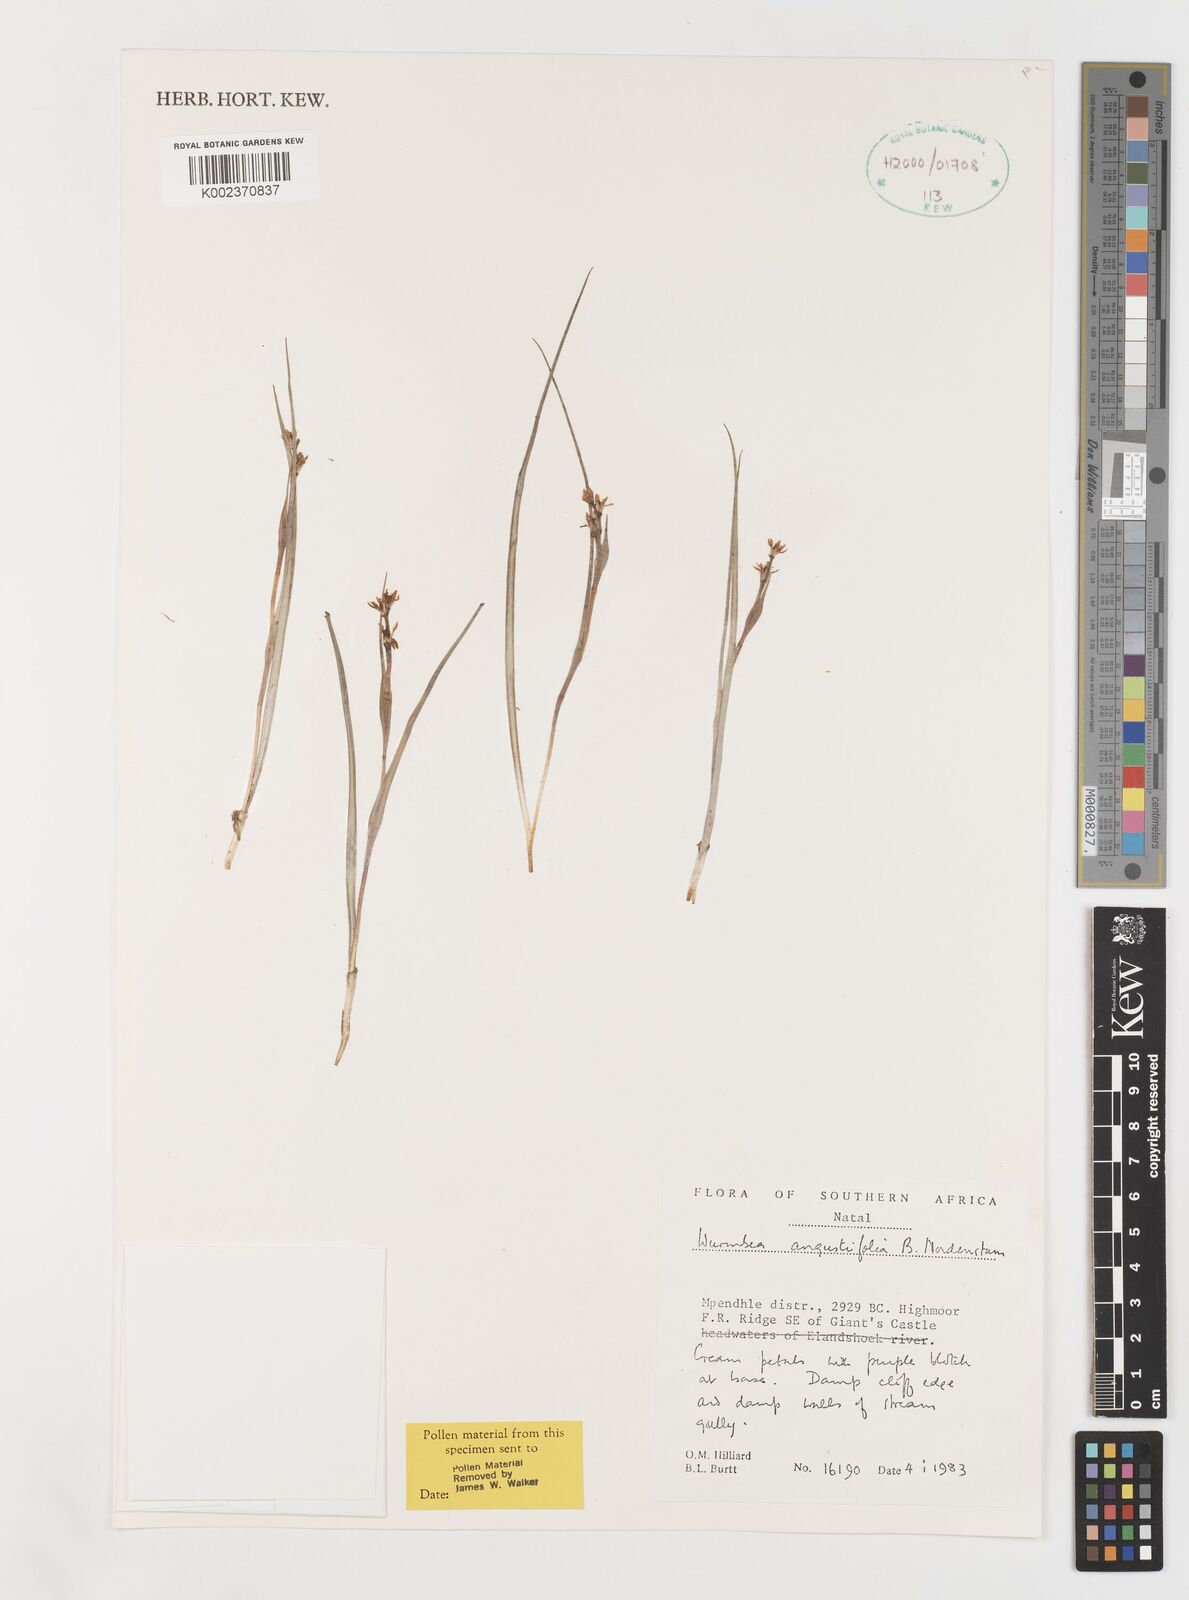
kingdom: Plantae
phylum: Tracheophyta
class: Liliopsida
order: Liliales
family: Colchicaceae
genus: Wurmbea
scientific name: Wurmbea angustifolia
